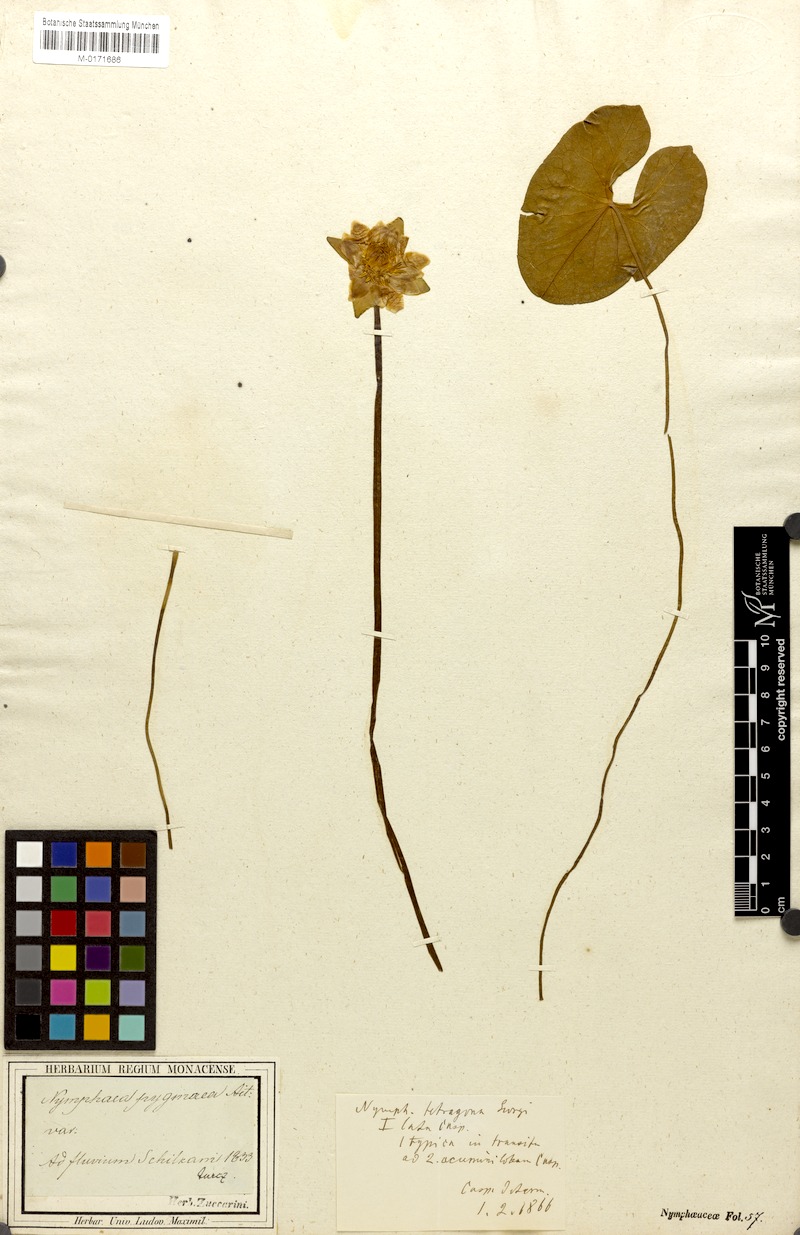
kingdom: Plantae
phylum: Tracheophyta
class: Magnoliopsida
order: Nymphaeales
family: Nymphaeaceae
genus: Nymphaea
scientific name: Nymphaea tetragona
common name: Pygmy water-lily
